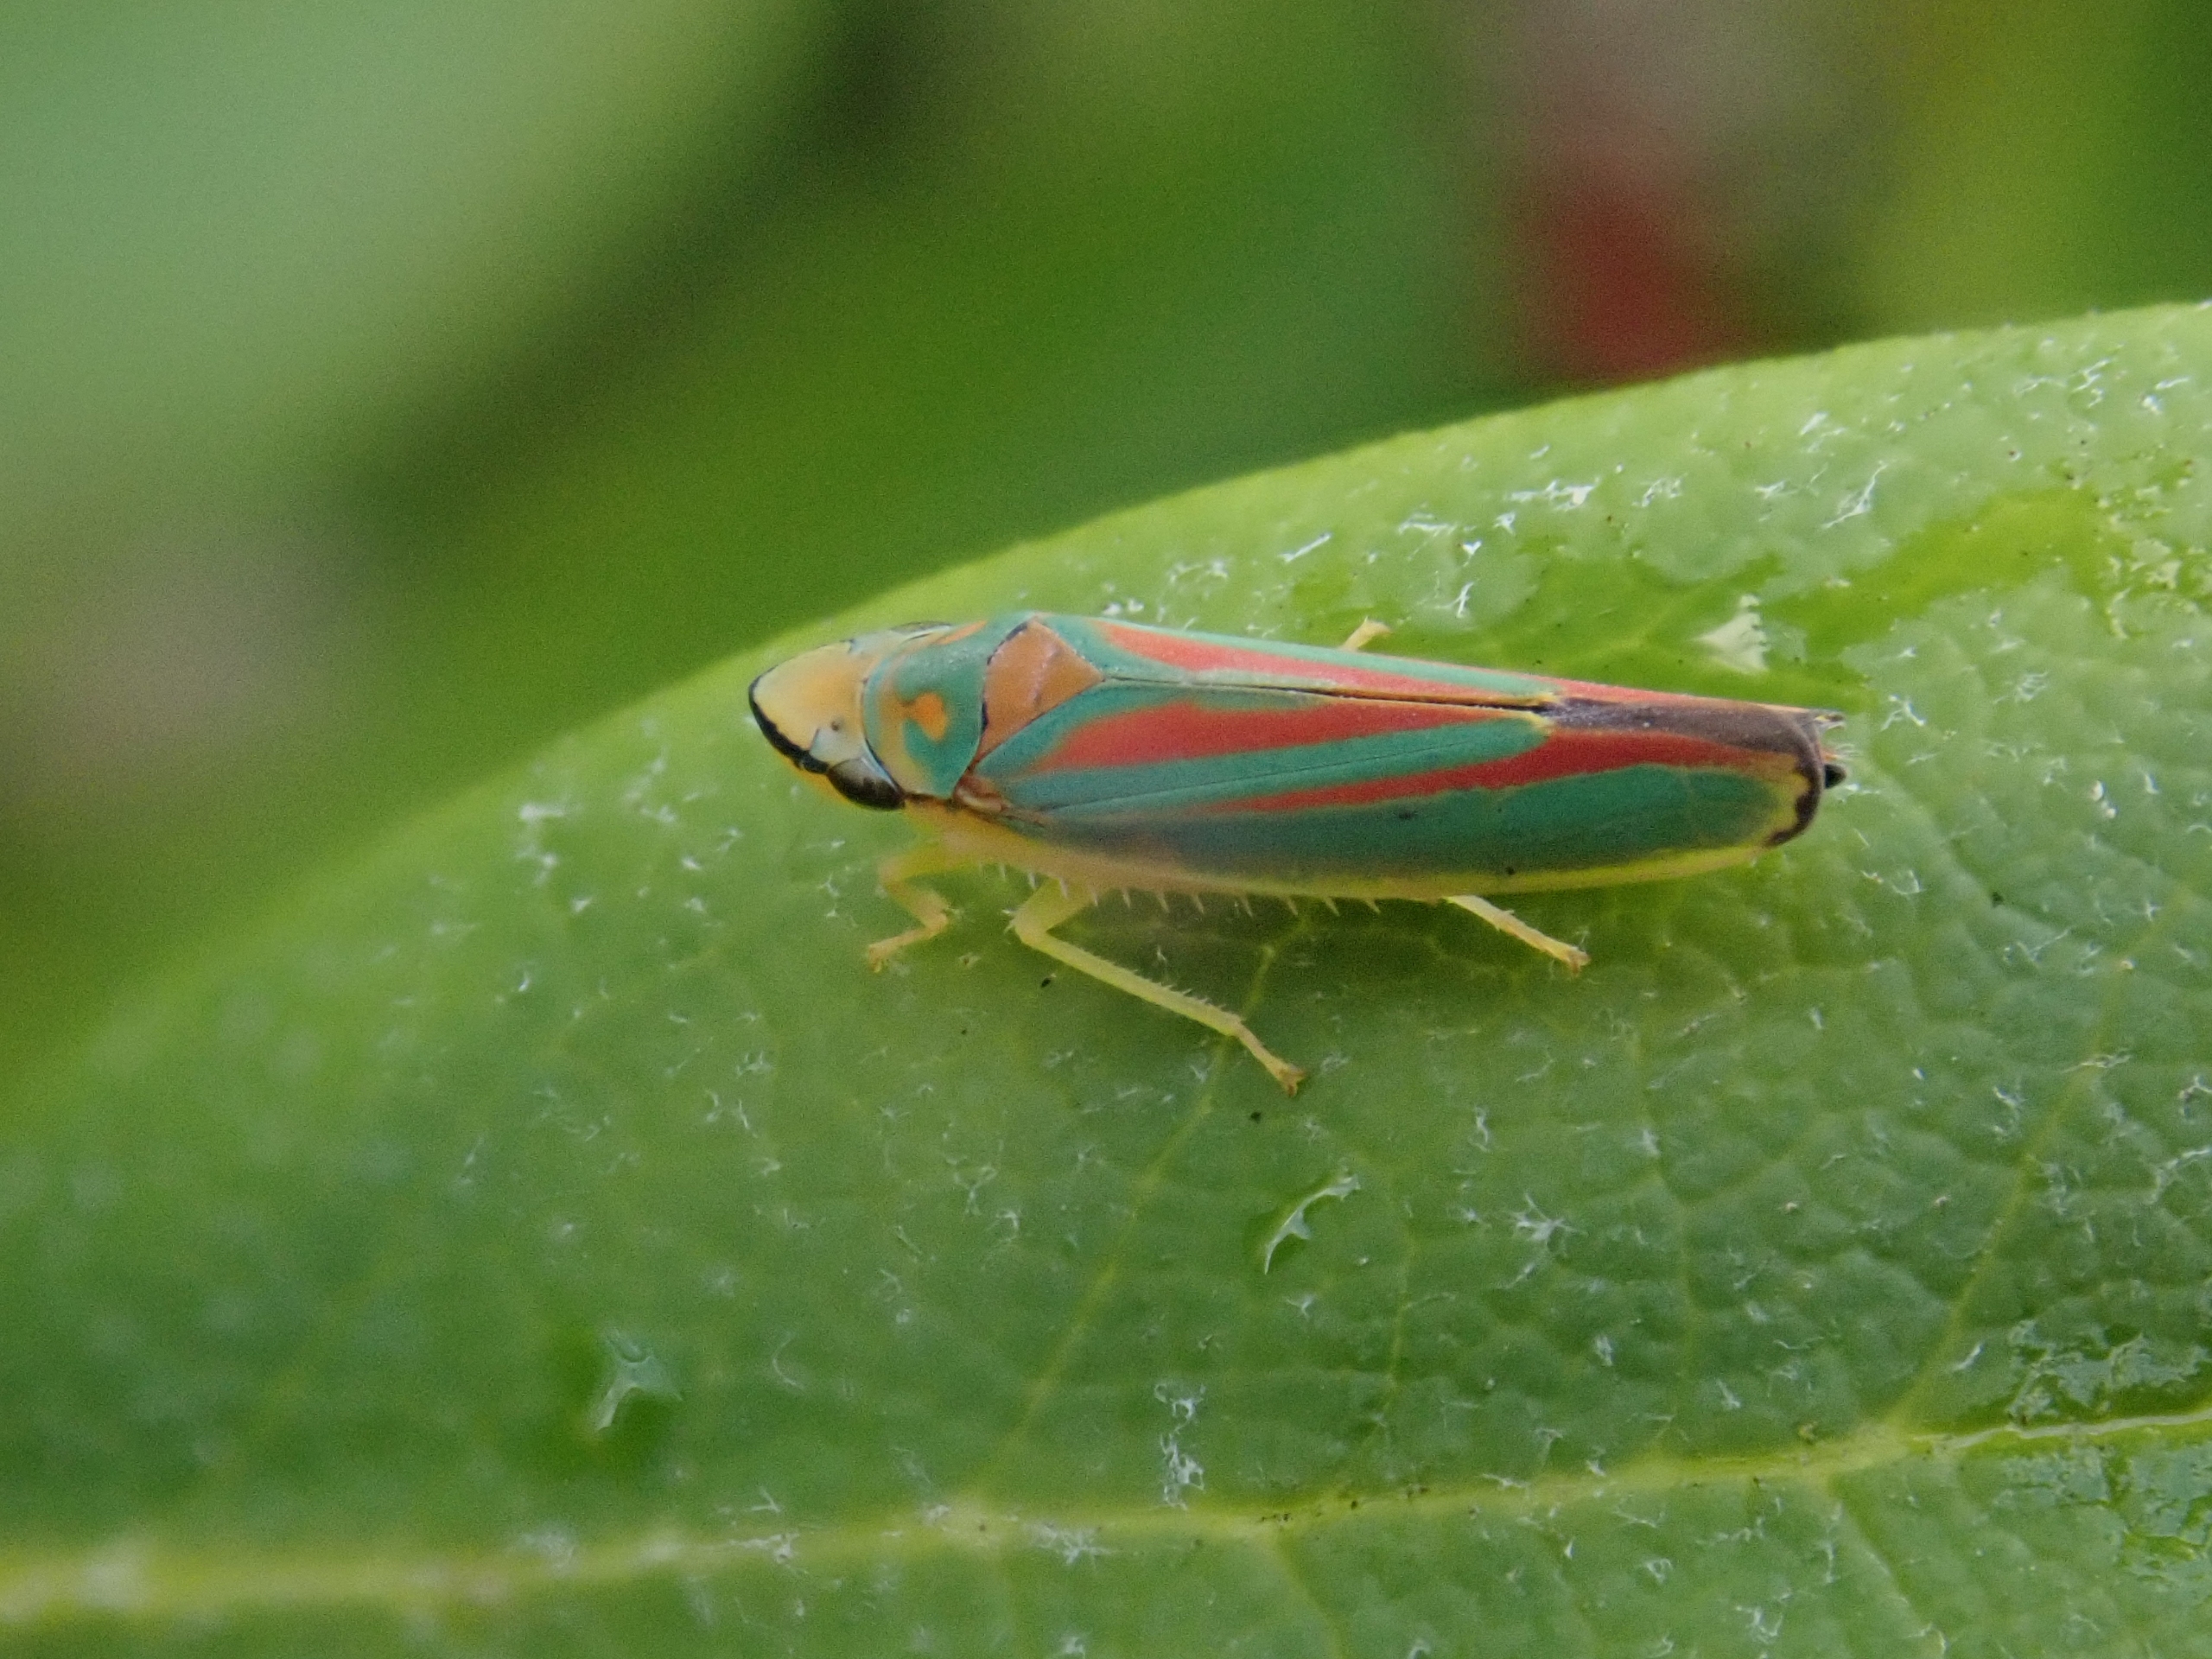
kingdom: Animalia
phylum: Arthropoda
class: Insecta
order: Hemiptera
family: Cicadellidae
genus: Graphocephala
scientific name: Graphocephala fennahi
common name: Rododendroncikade
